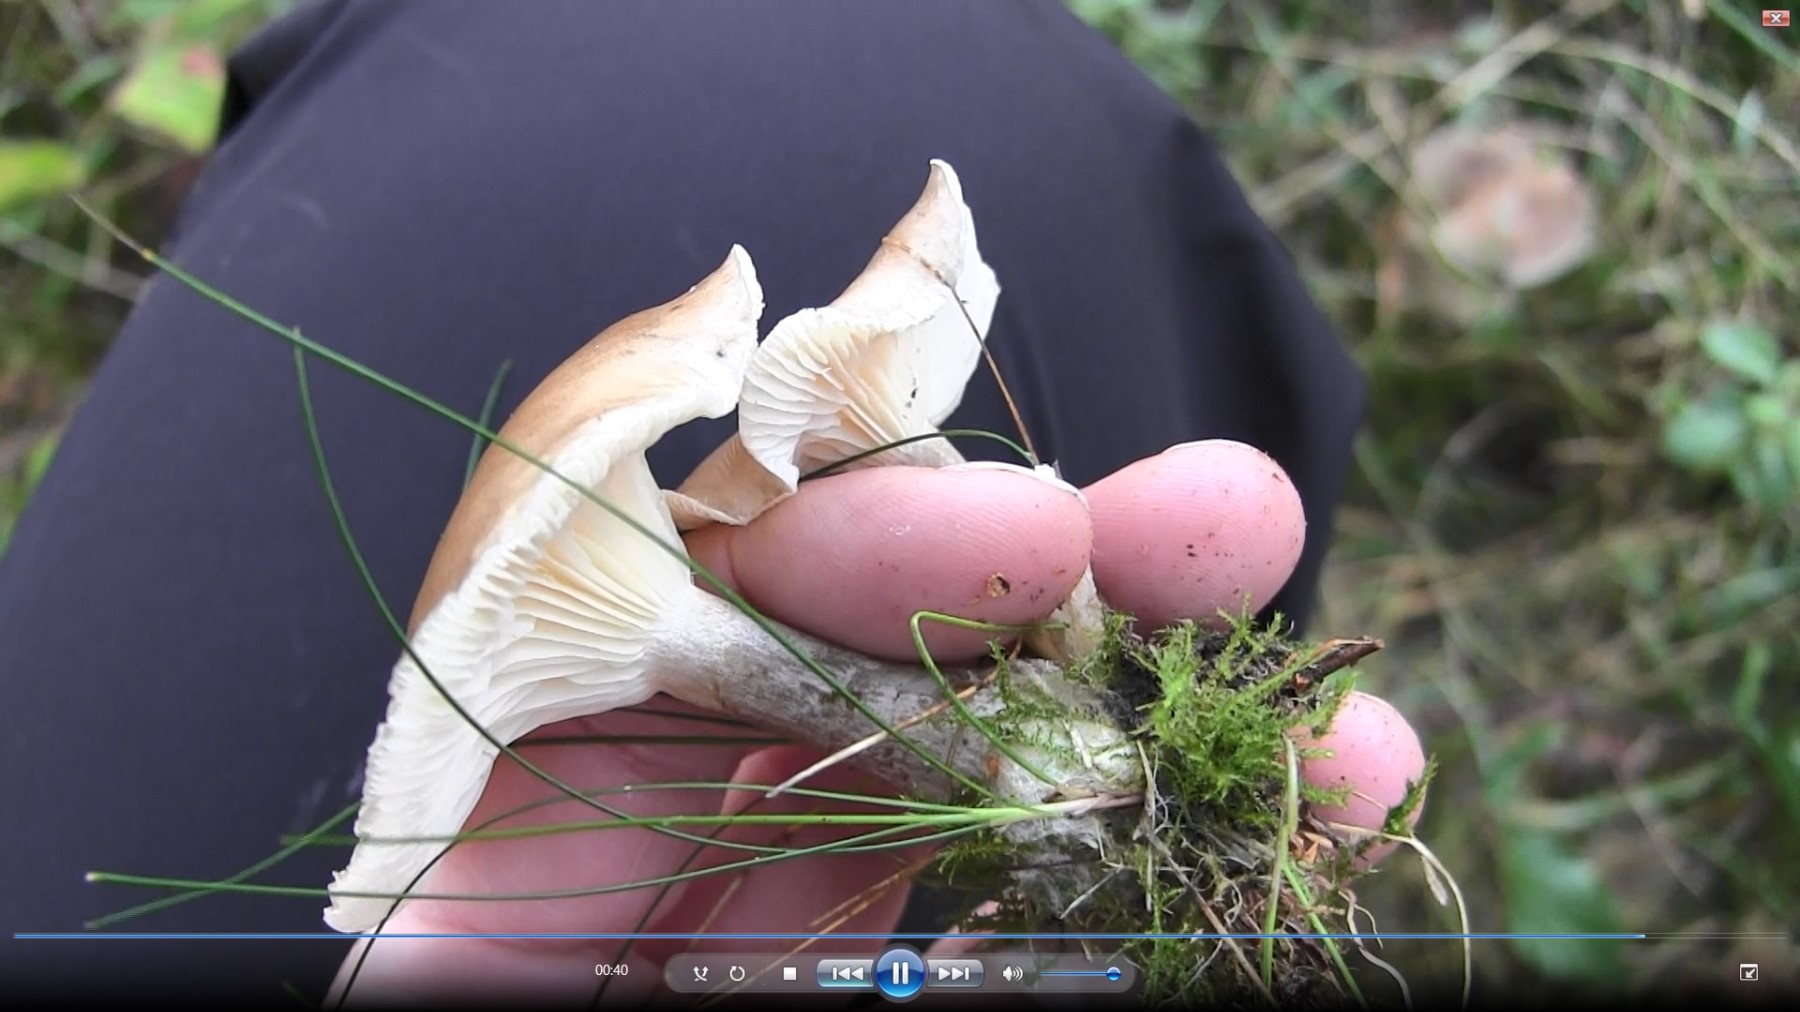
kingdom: Fungi
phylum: Basidiomycota
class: Agaricomycetes
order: Agaricales
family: Hygrophoraceae
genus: Ampulloclitocybe
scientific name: Ampulloclitocybe clavipes
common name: køllefod
